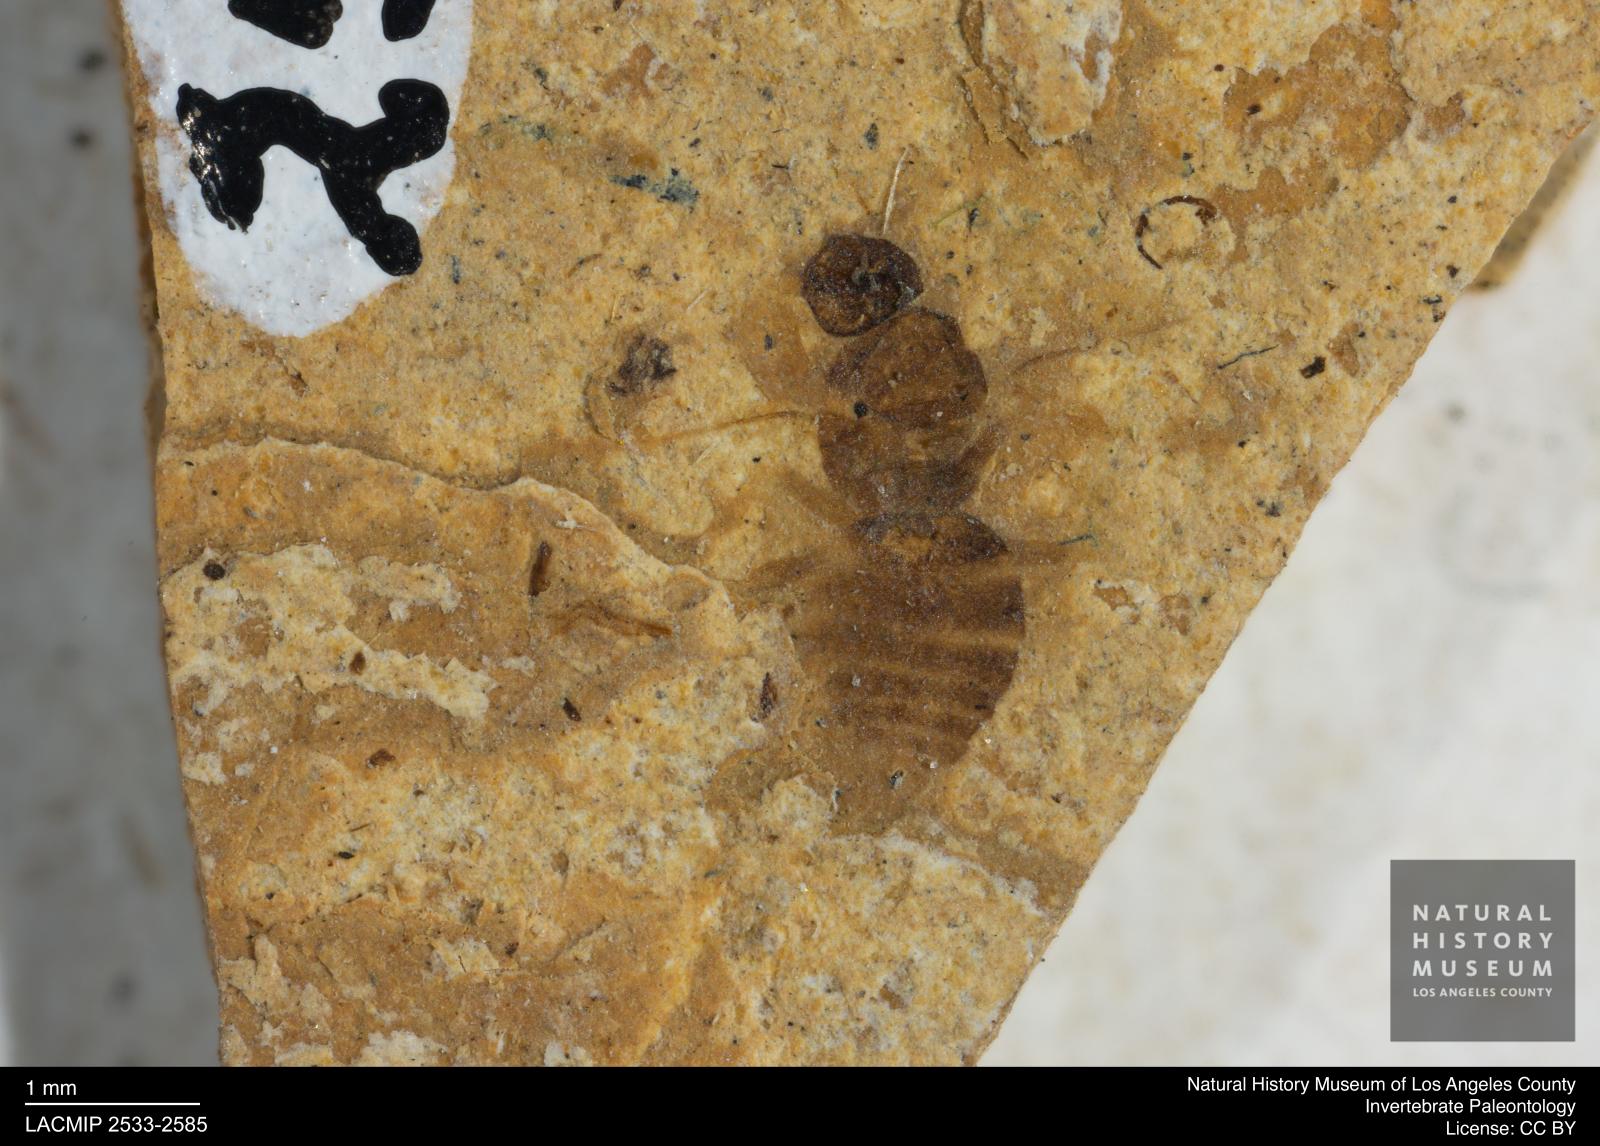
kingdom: Animalia
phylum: Arthropoda
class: Insecta
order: Hymenoptera
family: Formicidae
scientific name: Formicidae
